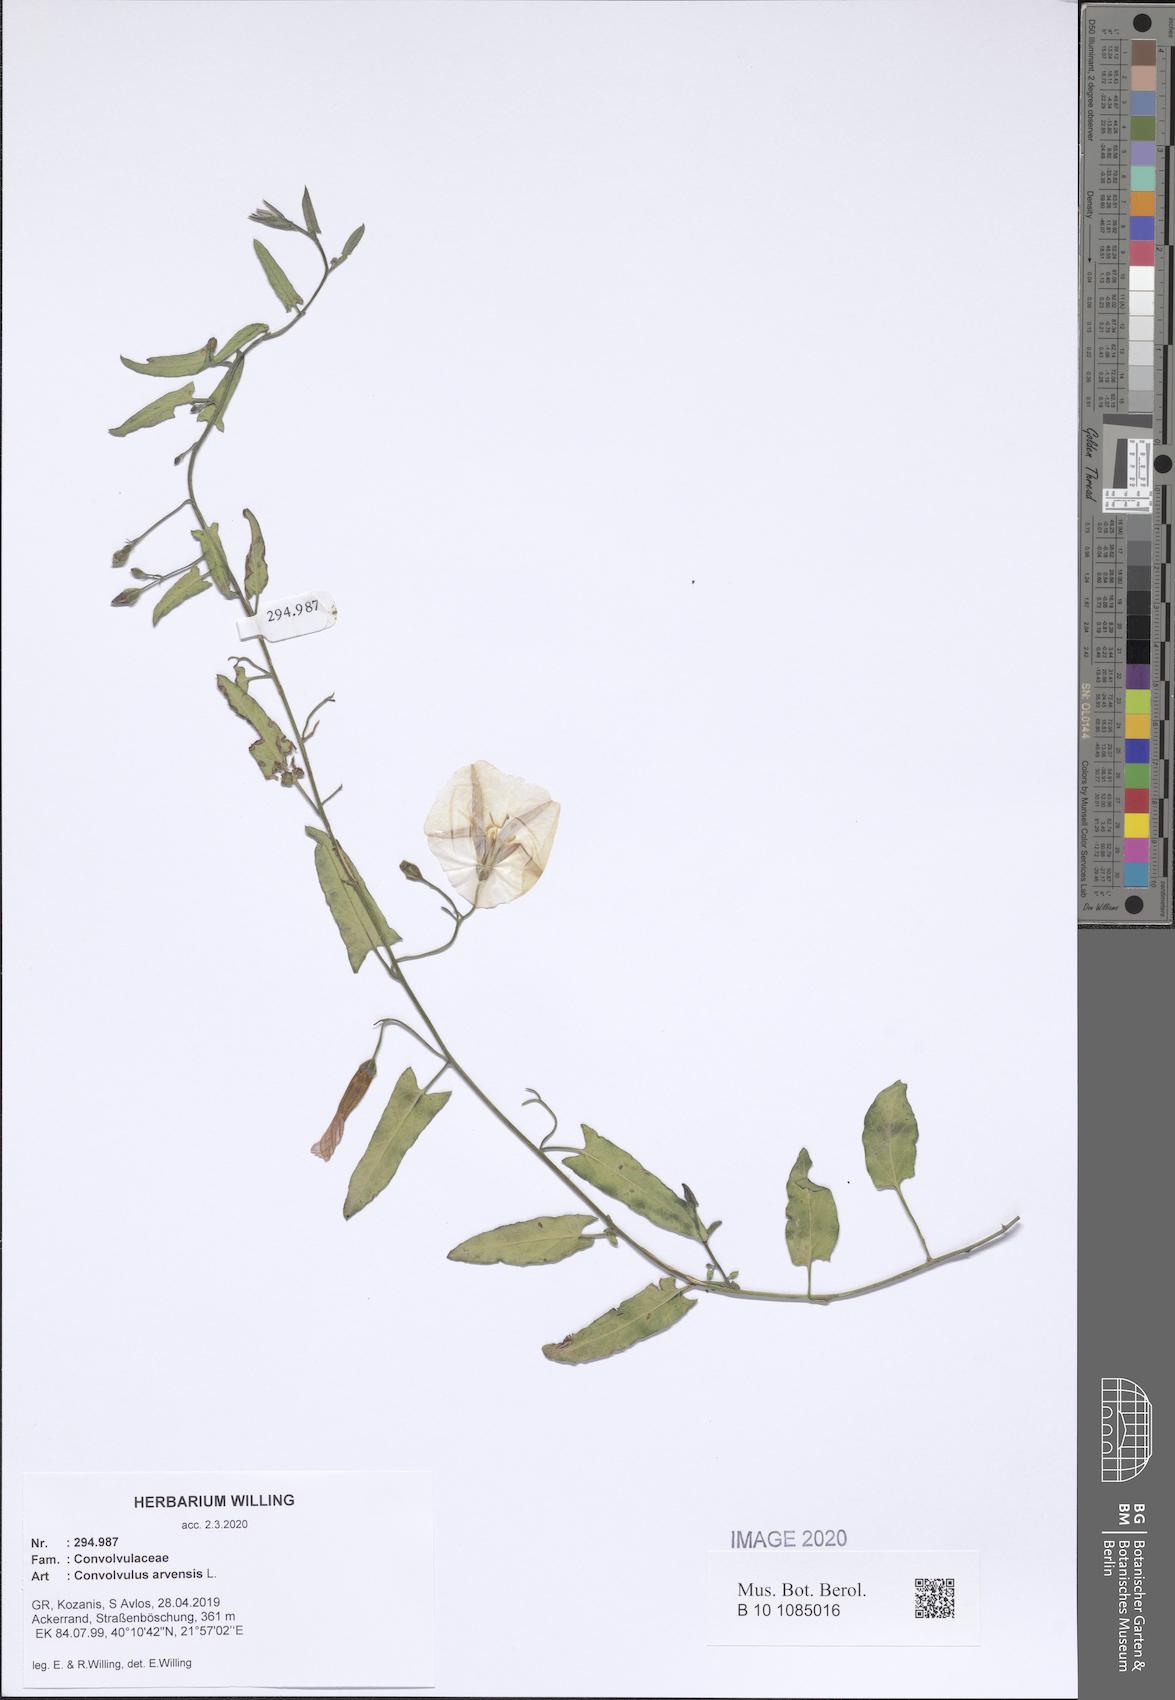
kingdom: Plantae
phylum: Tracheophyta
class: Magnoliopsida
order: Solanales
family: Convolvulaceae
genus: Convolvulus
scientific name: Convolvulus arvensis
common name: Field bindweed
